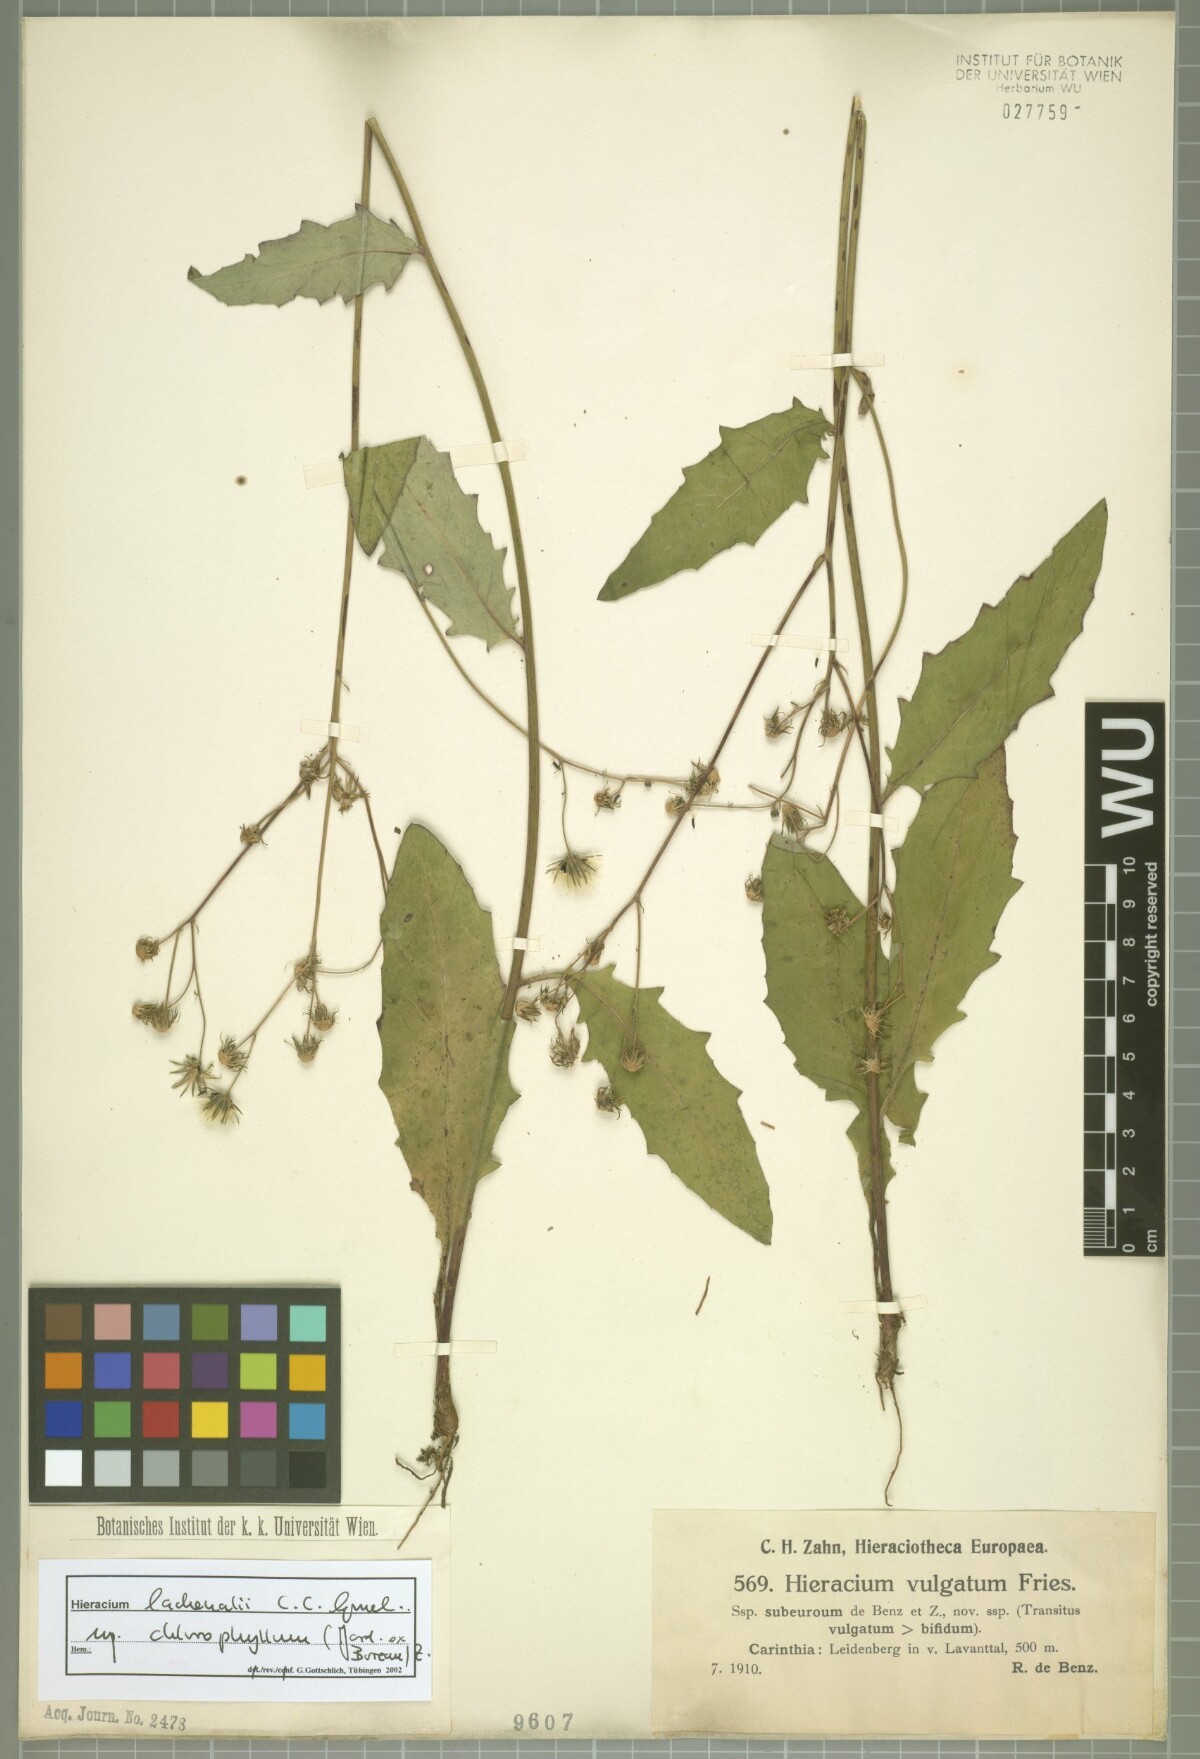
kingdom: Plantae
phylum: Tracheophyta
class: Magnoliopsida
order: Asterales
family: Asteraceae
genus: Hieracium
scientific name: Hieracium vulgatum
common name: Common hawkweed
